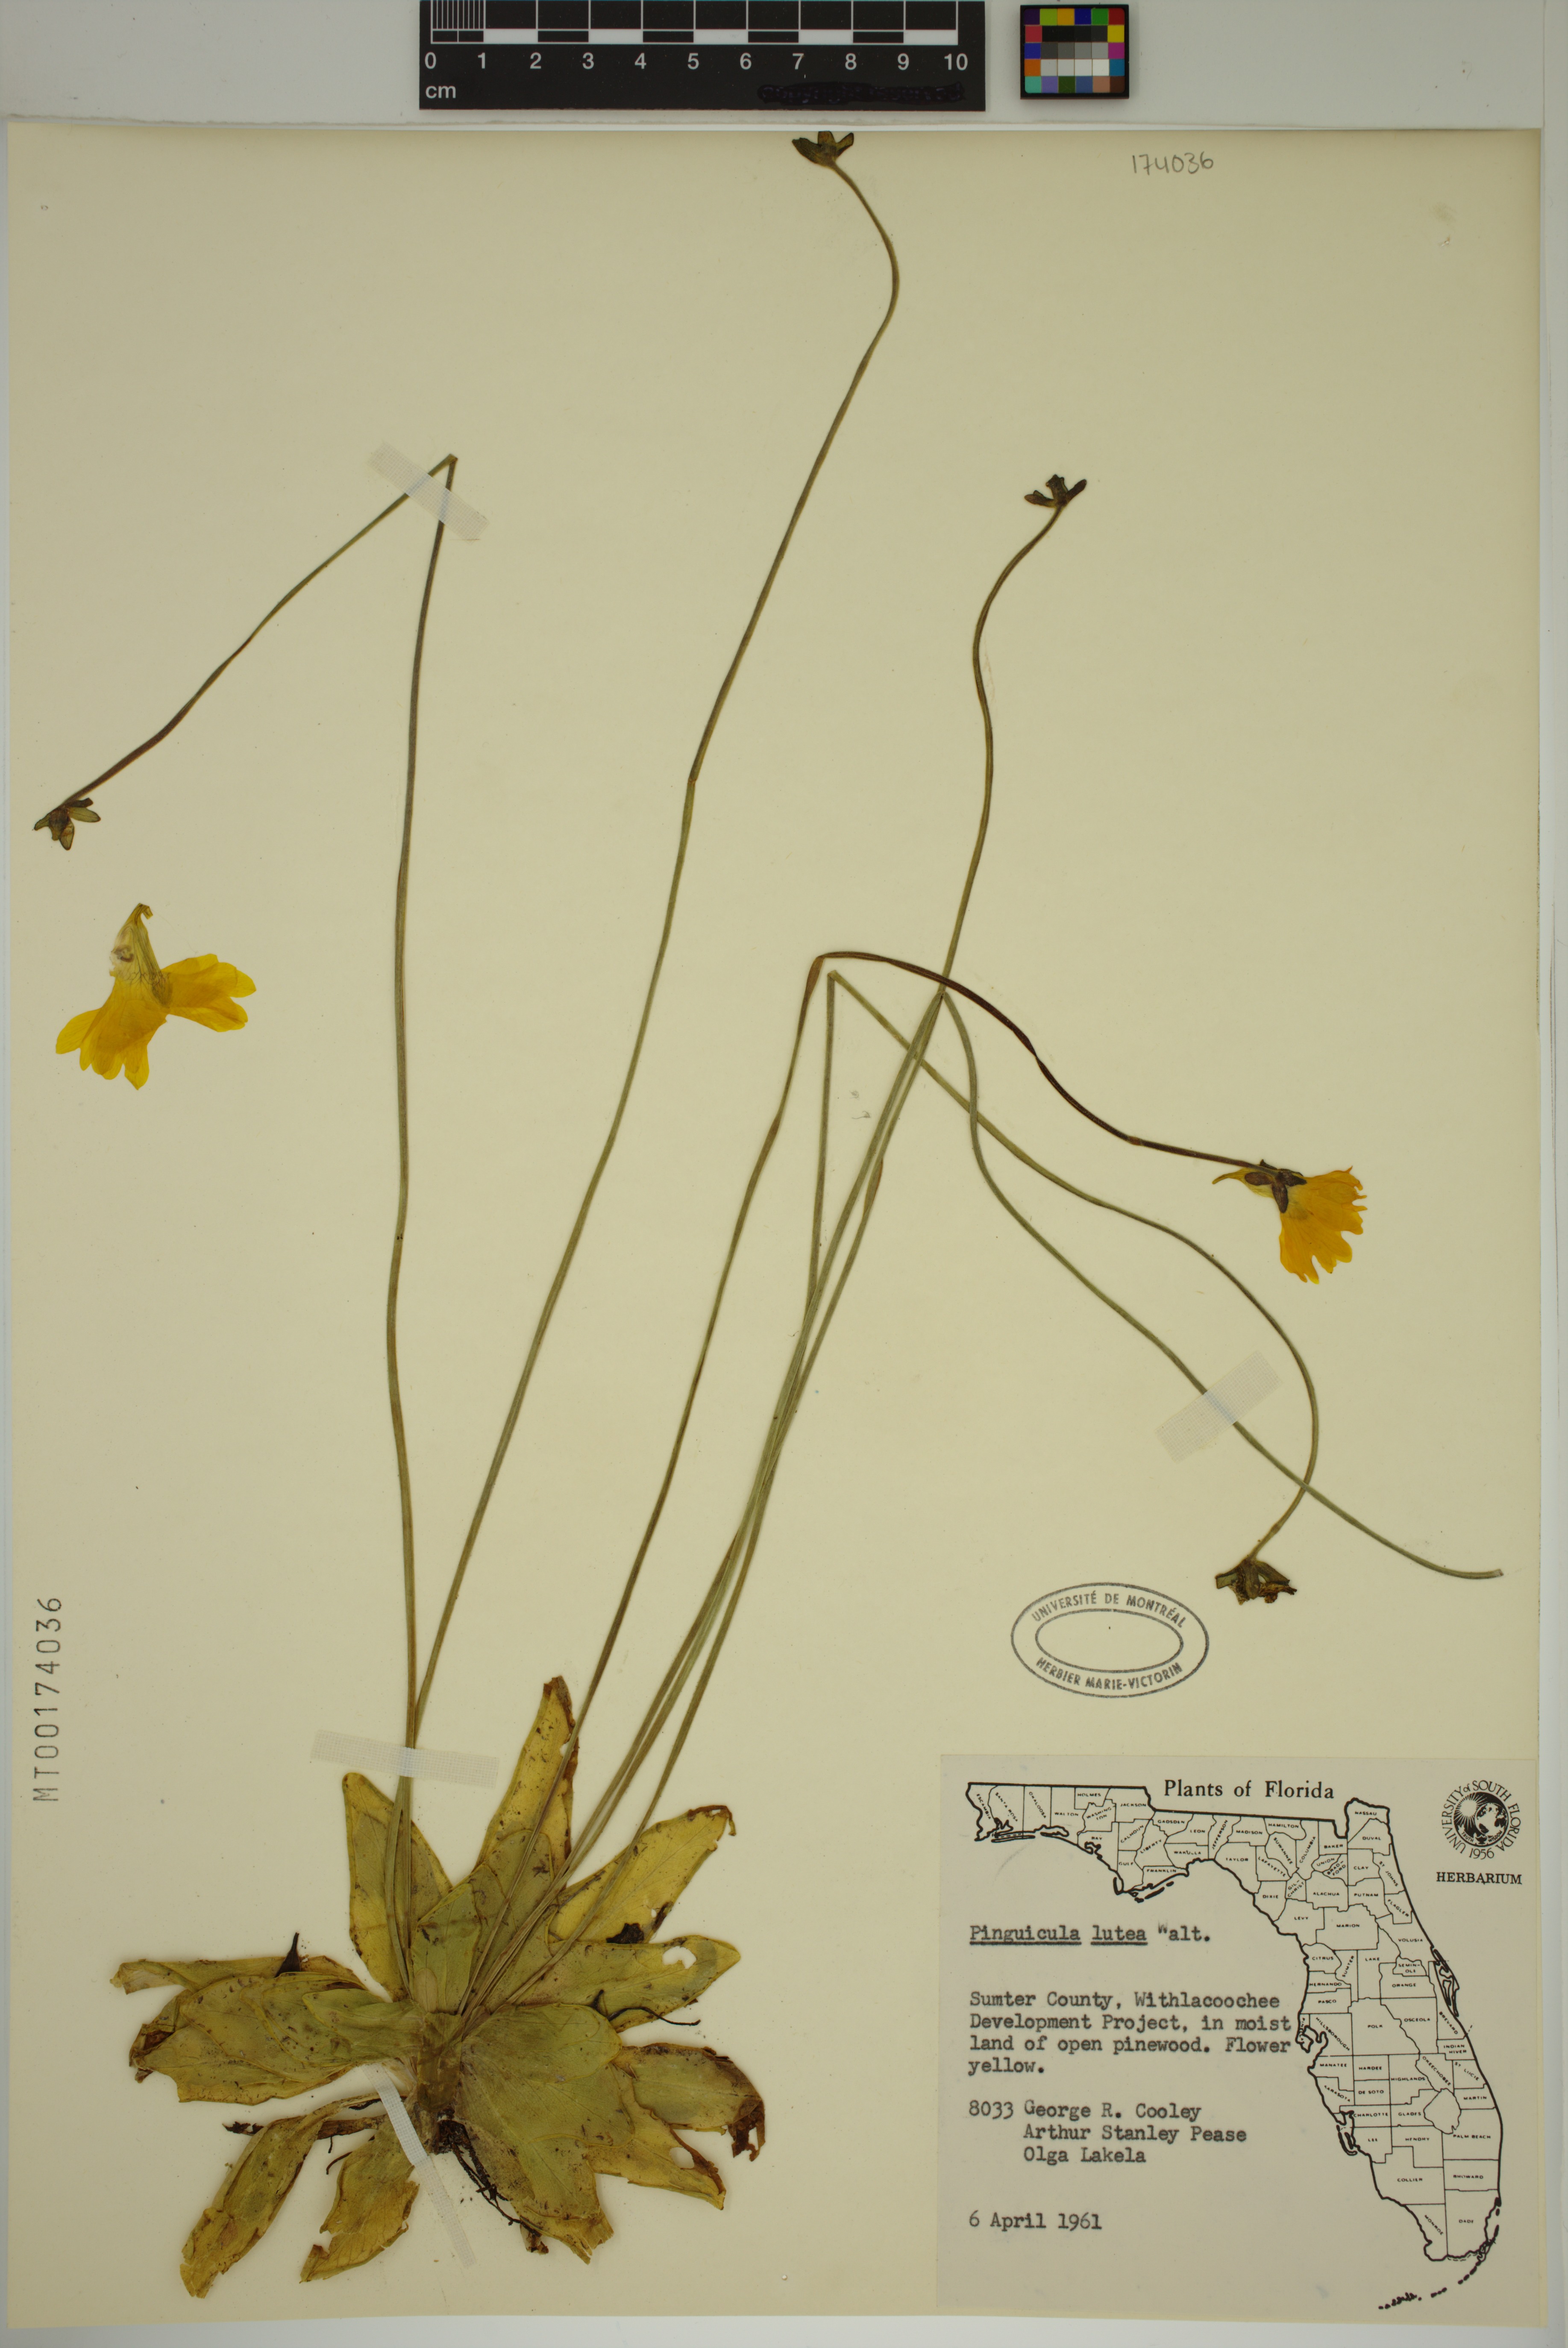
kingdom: Plantae
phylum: Tracheophyta
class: Magnoliopsida
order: Lamiales
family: Lentibulariaceae
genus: Pinguicula
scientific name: Pinguicula lutea
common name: Yellow butterwort
